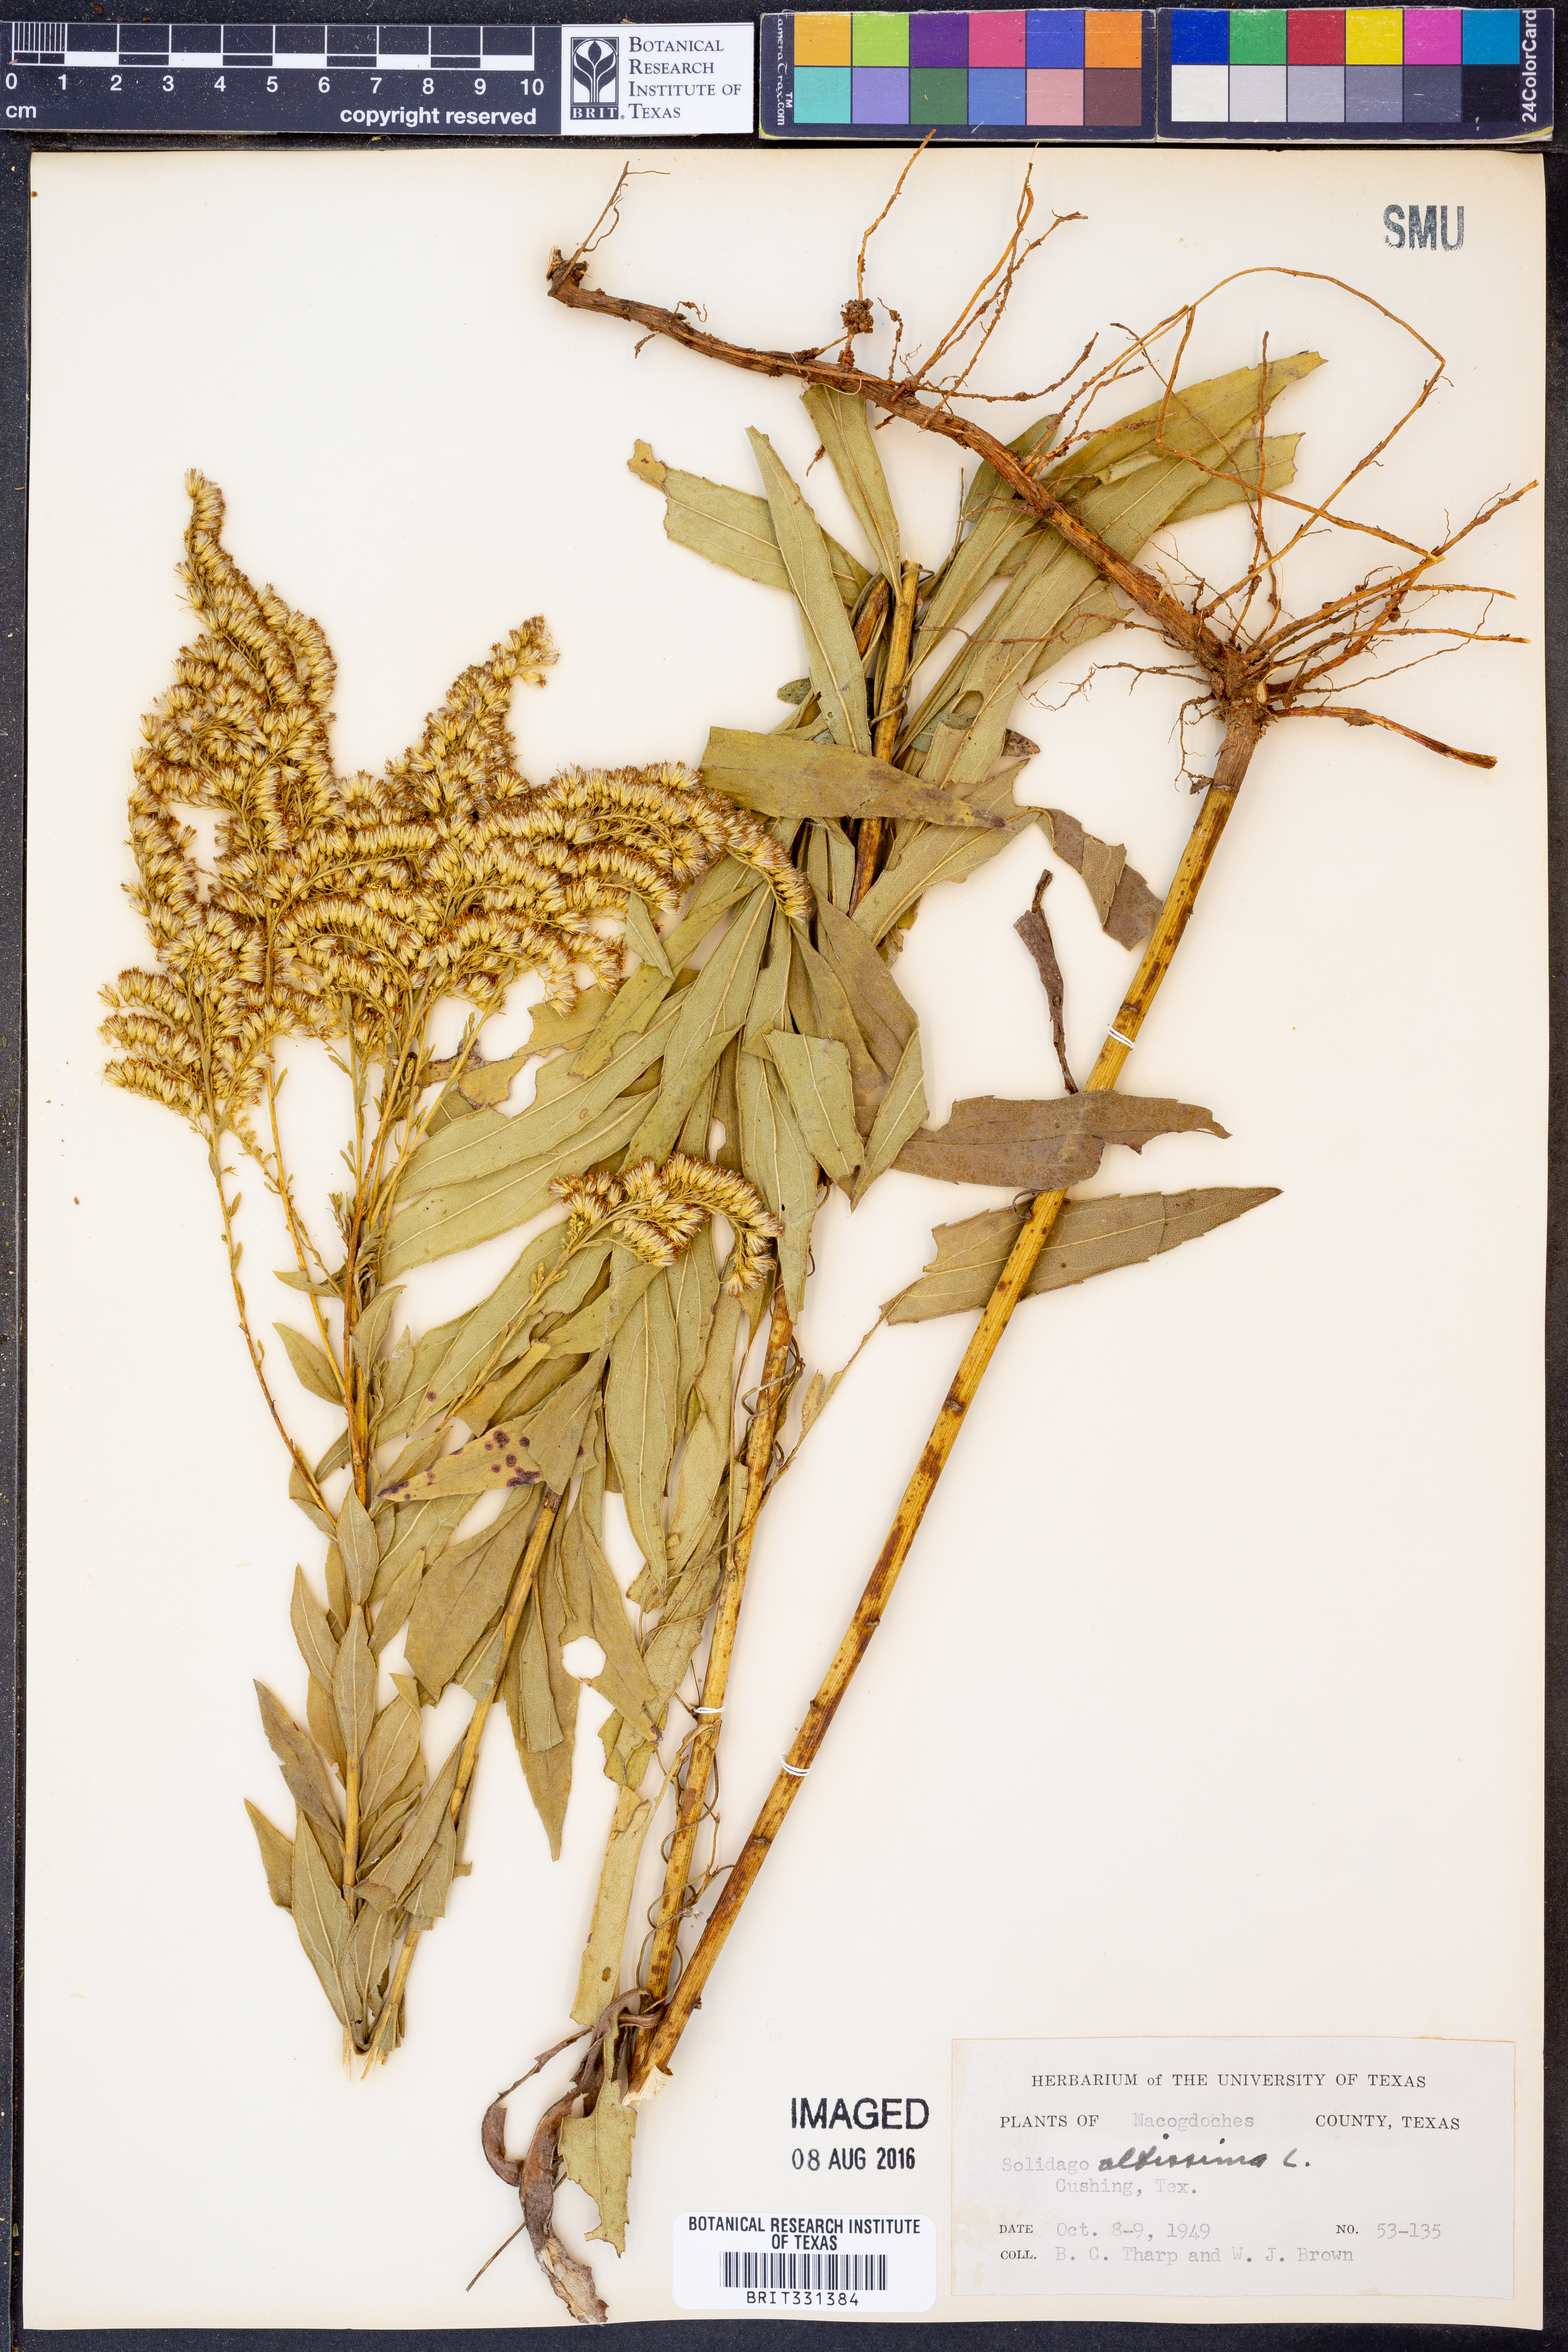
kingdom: Plantae
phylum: Tracheophyta
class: Magnoliopsida
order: Asterales
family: Asteraceae
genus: Solidago
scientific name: Solidago altissima
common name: Late goldenrod
